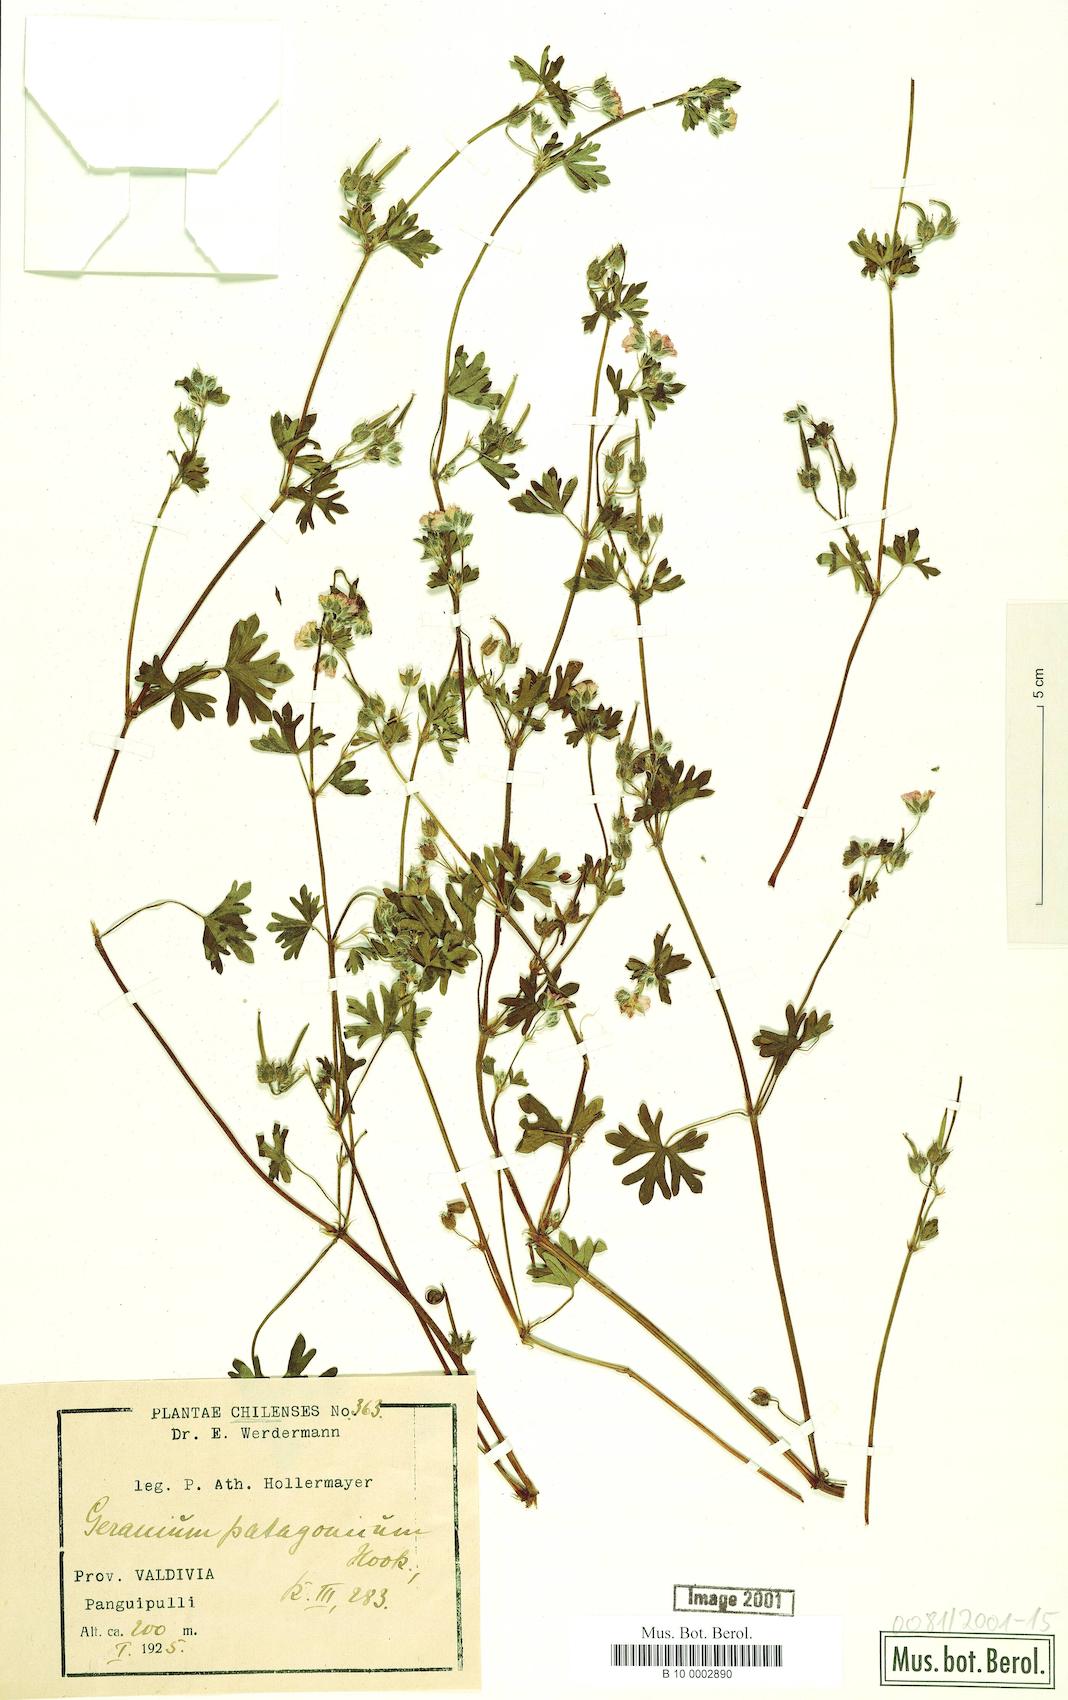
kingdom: Plantae
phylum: Tracheophyta
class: Magnoliopsida
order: Geraniales
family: Geraniaceae
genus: Geranium
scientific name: Geranium berteroanum
